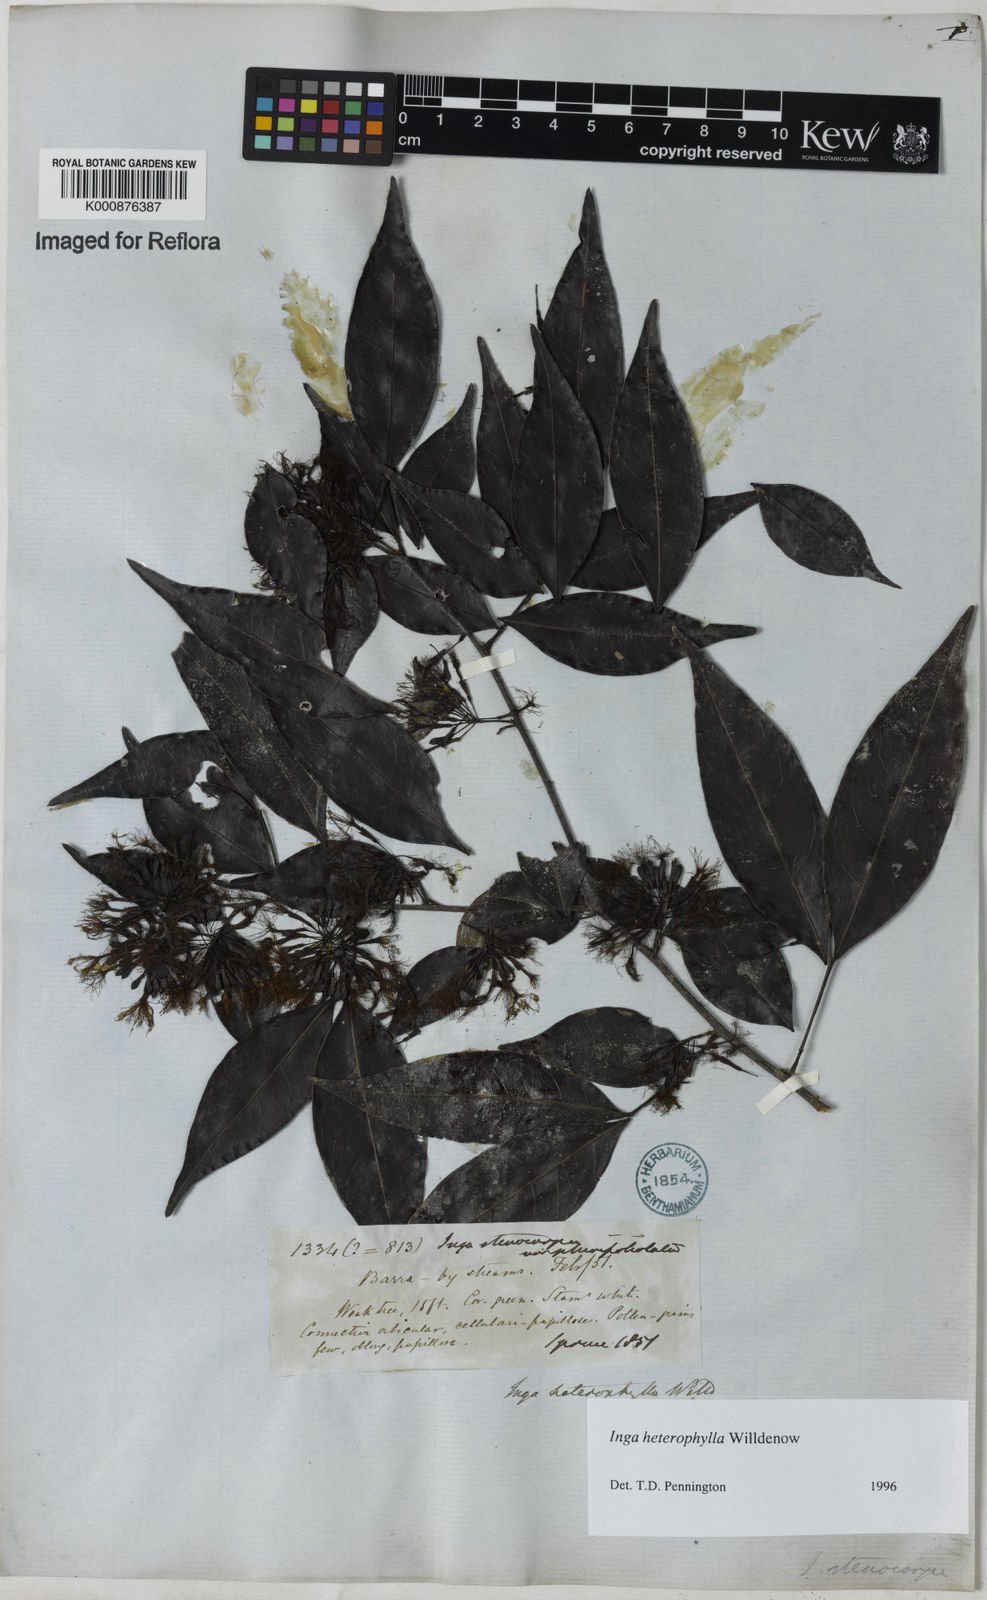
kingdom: Plantae
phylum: Tracheophyta
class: Magnoliopsida
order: Fabales
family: Fabaceae
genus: Inga
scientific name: Inga heterophylla
